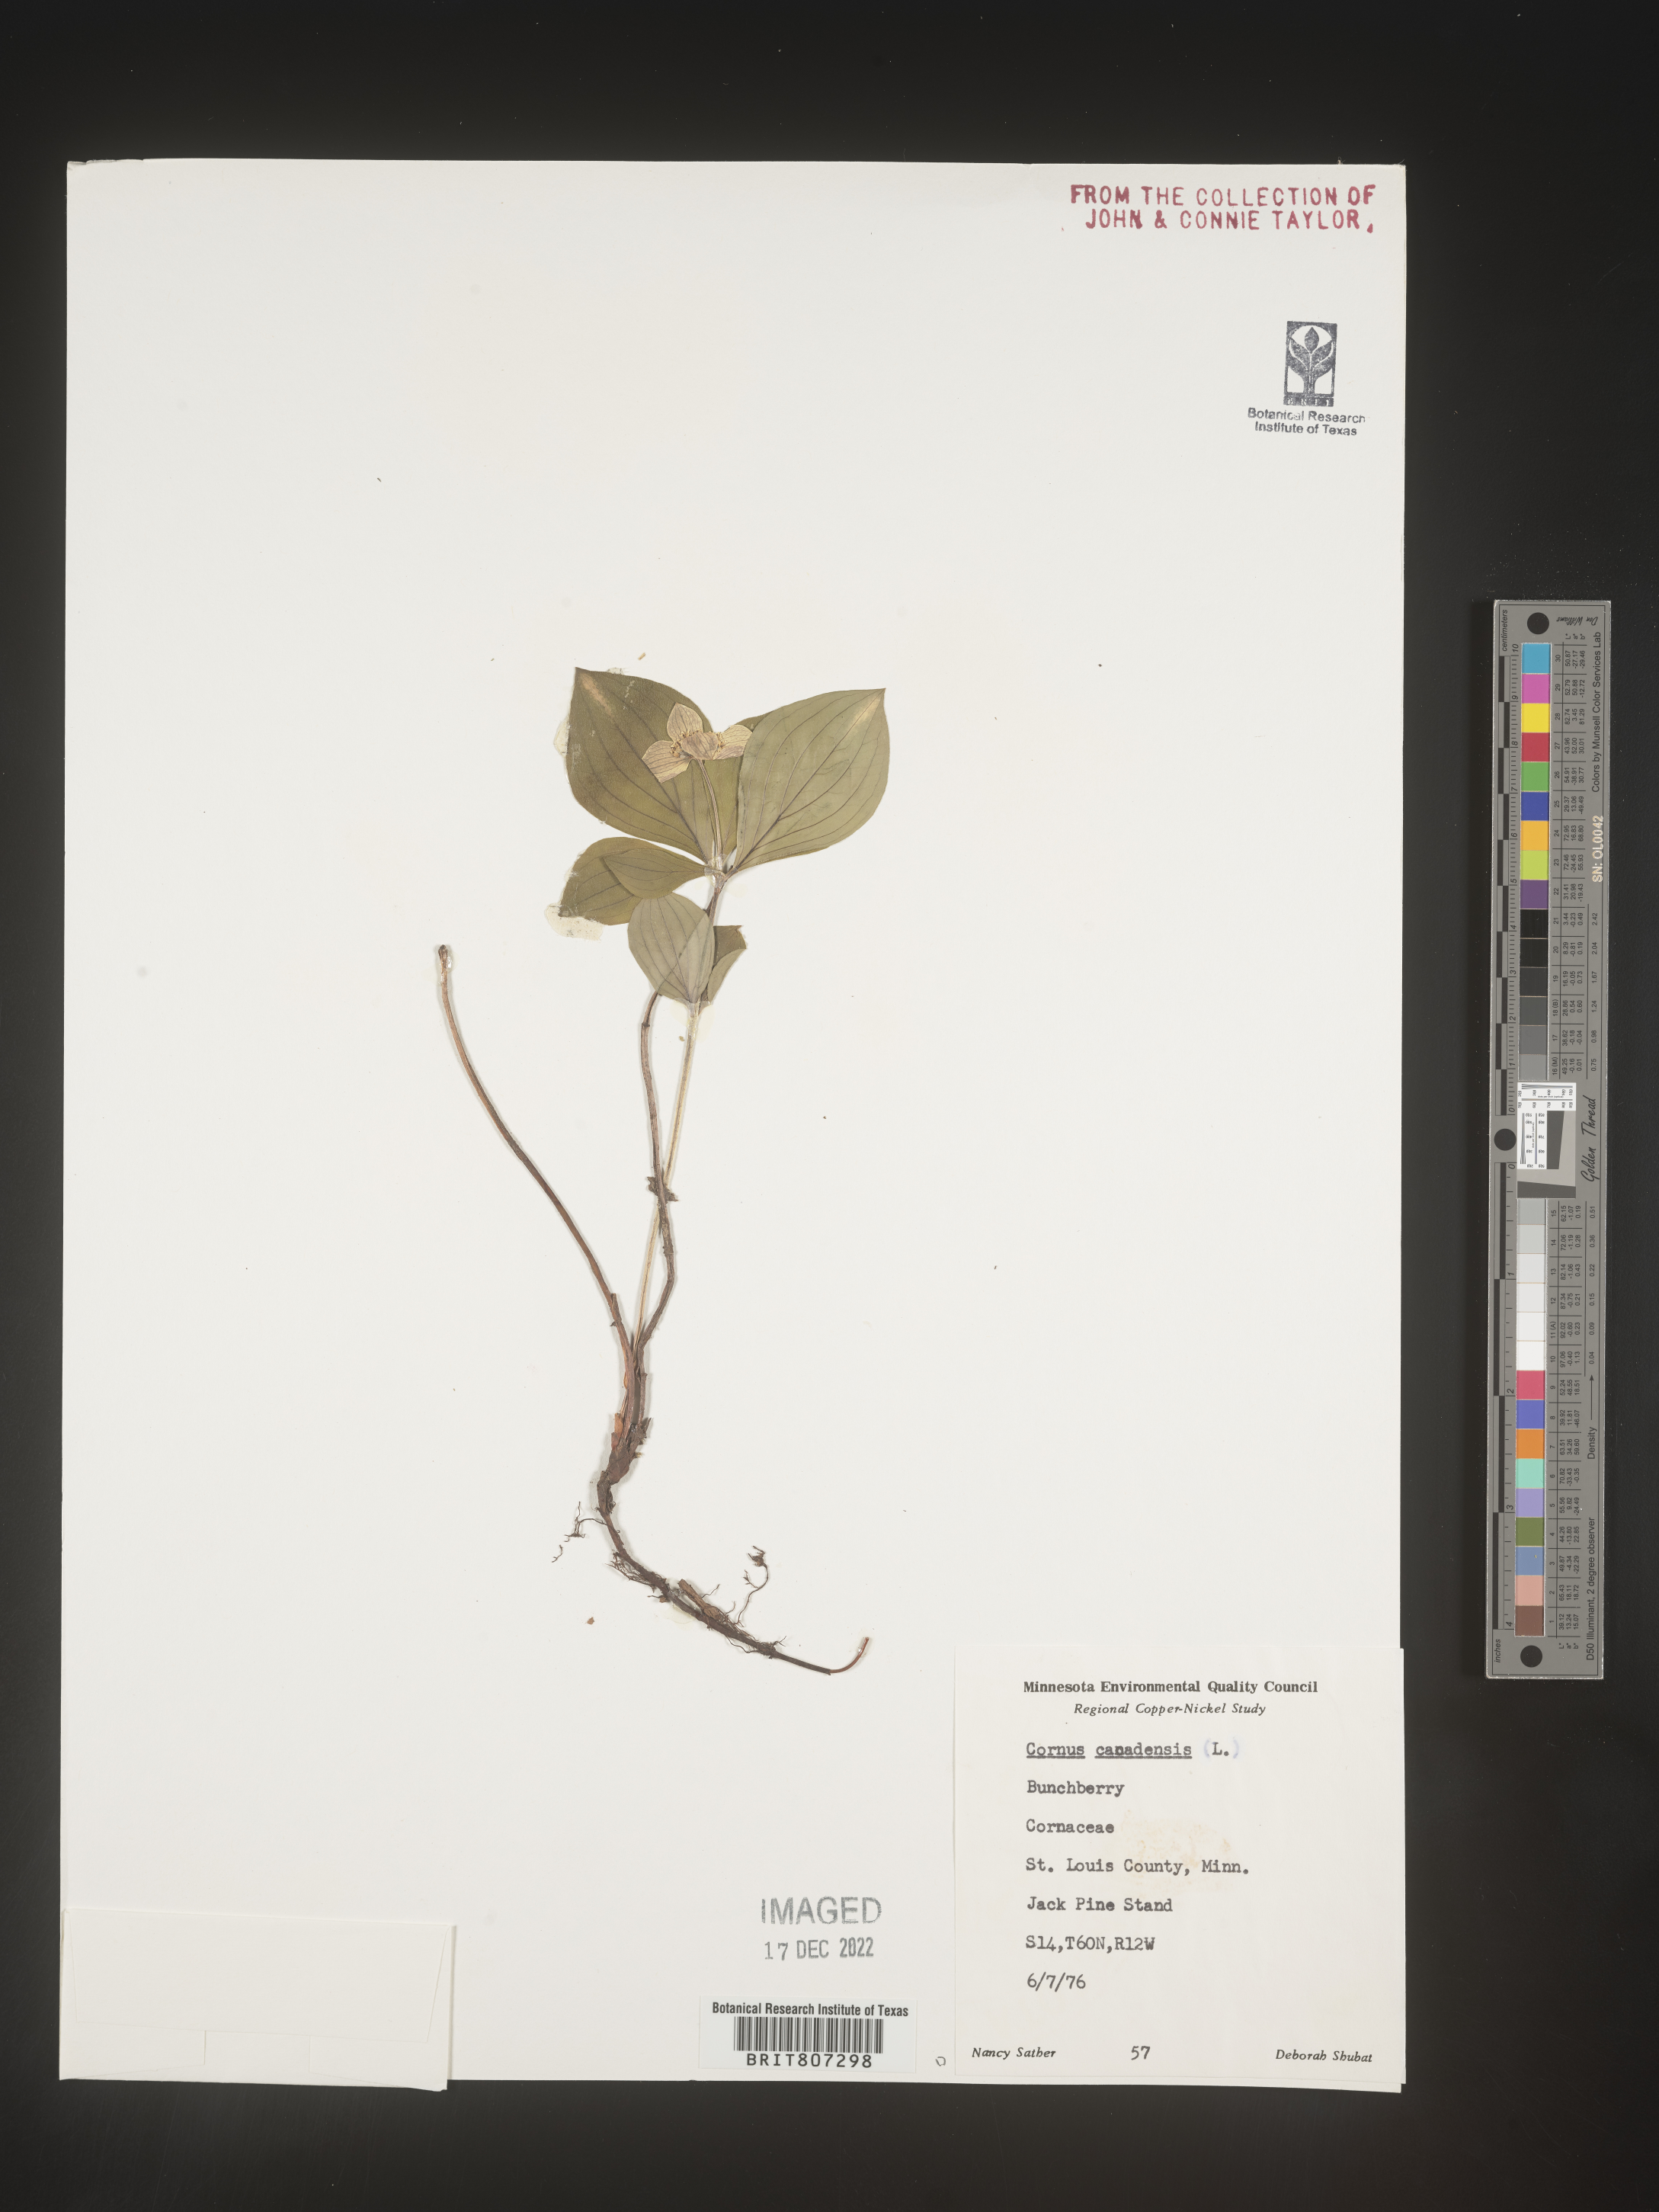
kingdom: Plantae
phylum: Tracheophyta
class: Magnoliopsida
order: Cornales
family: Cornaceae
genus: Cornus
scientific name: Cornus canadensis
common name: Creeping dogwood
